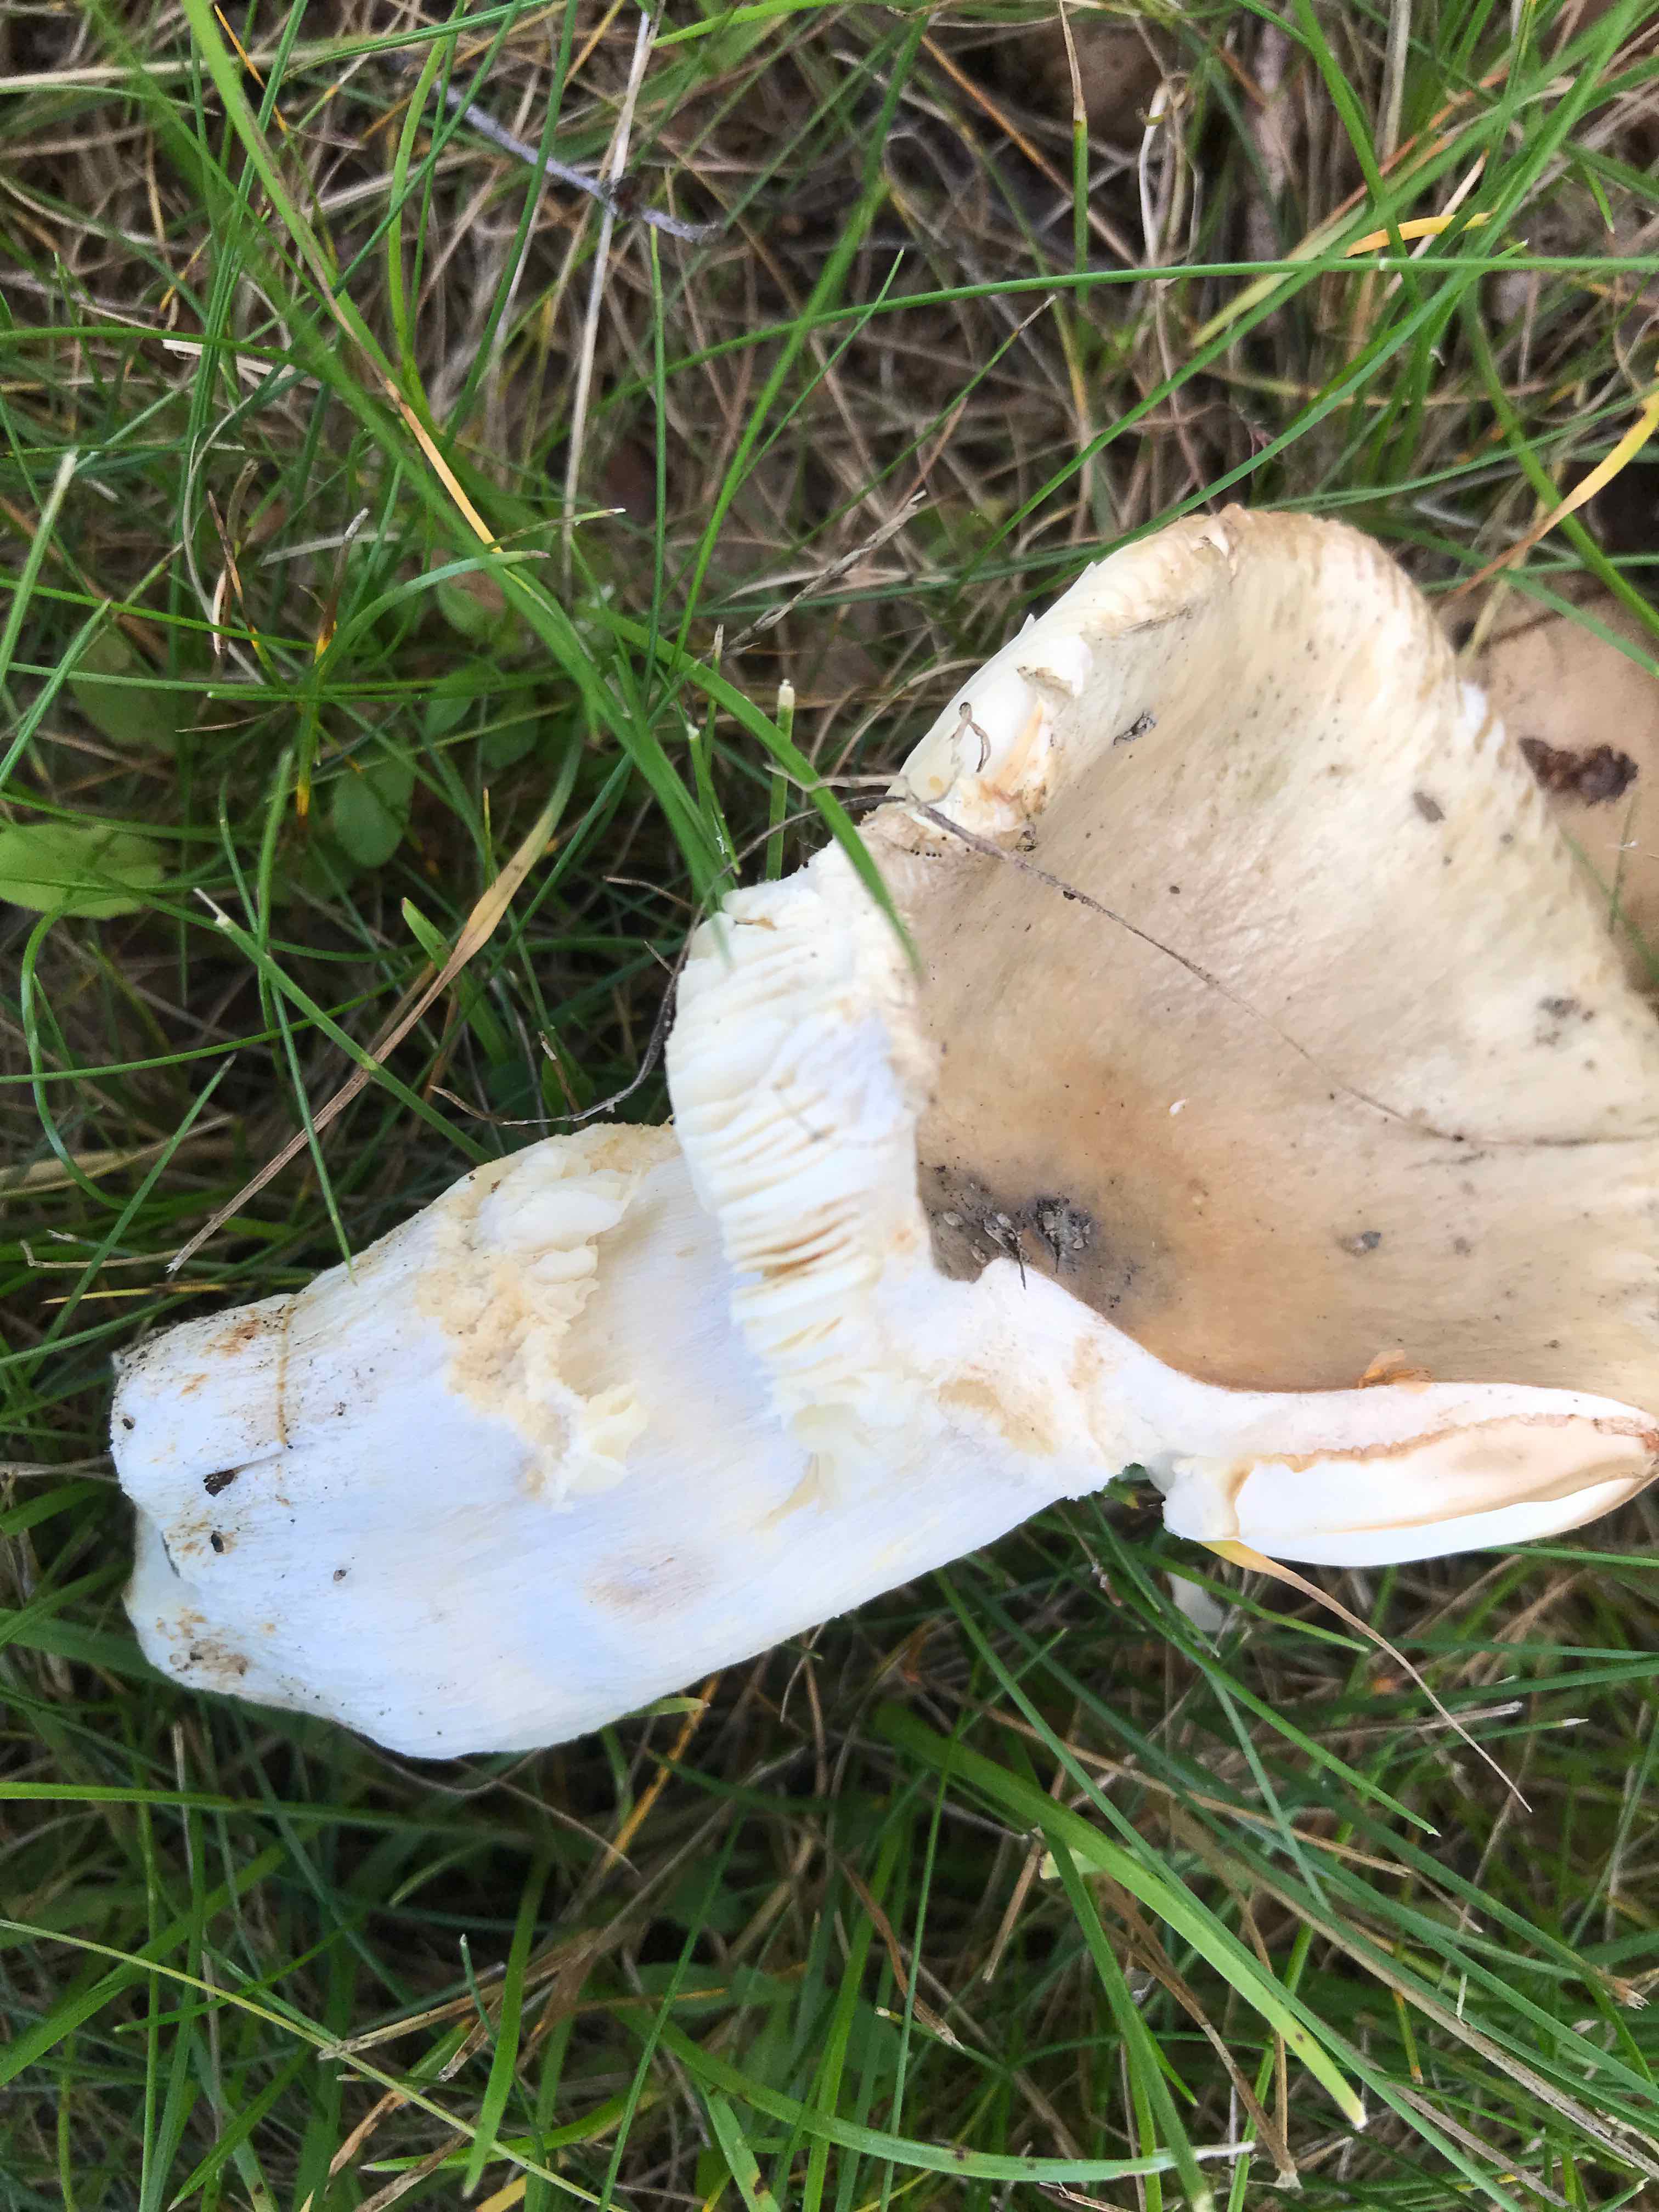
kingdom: Fungi
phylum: Basidiomycota
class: Agaricomycetes
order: Russulales
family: Russulaceae
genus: Russula
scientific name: Russula
